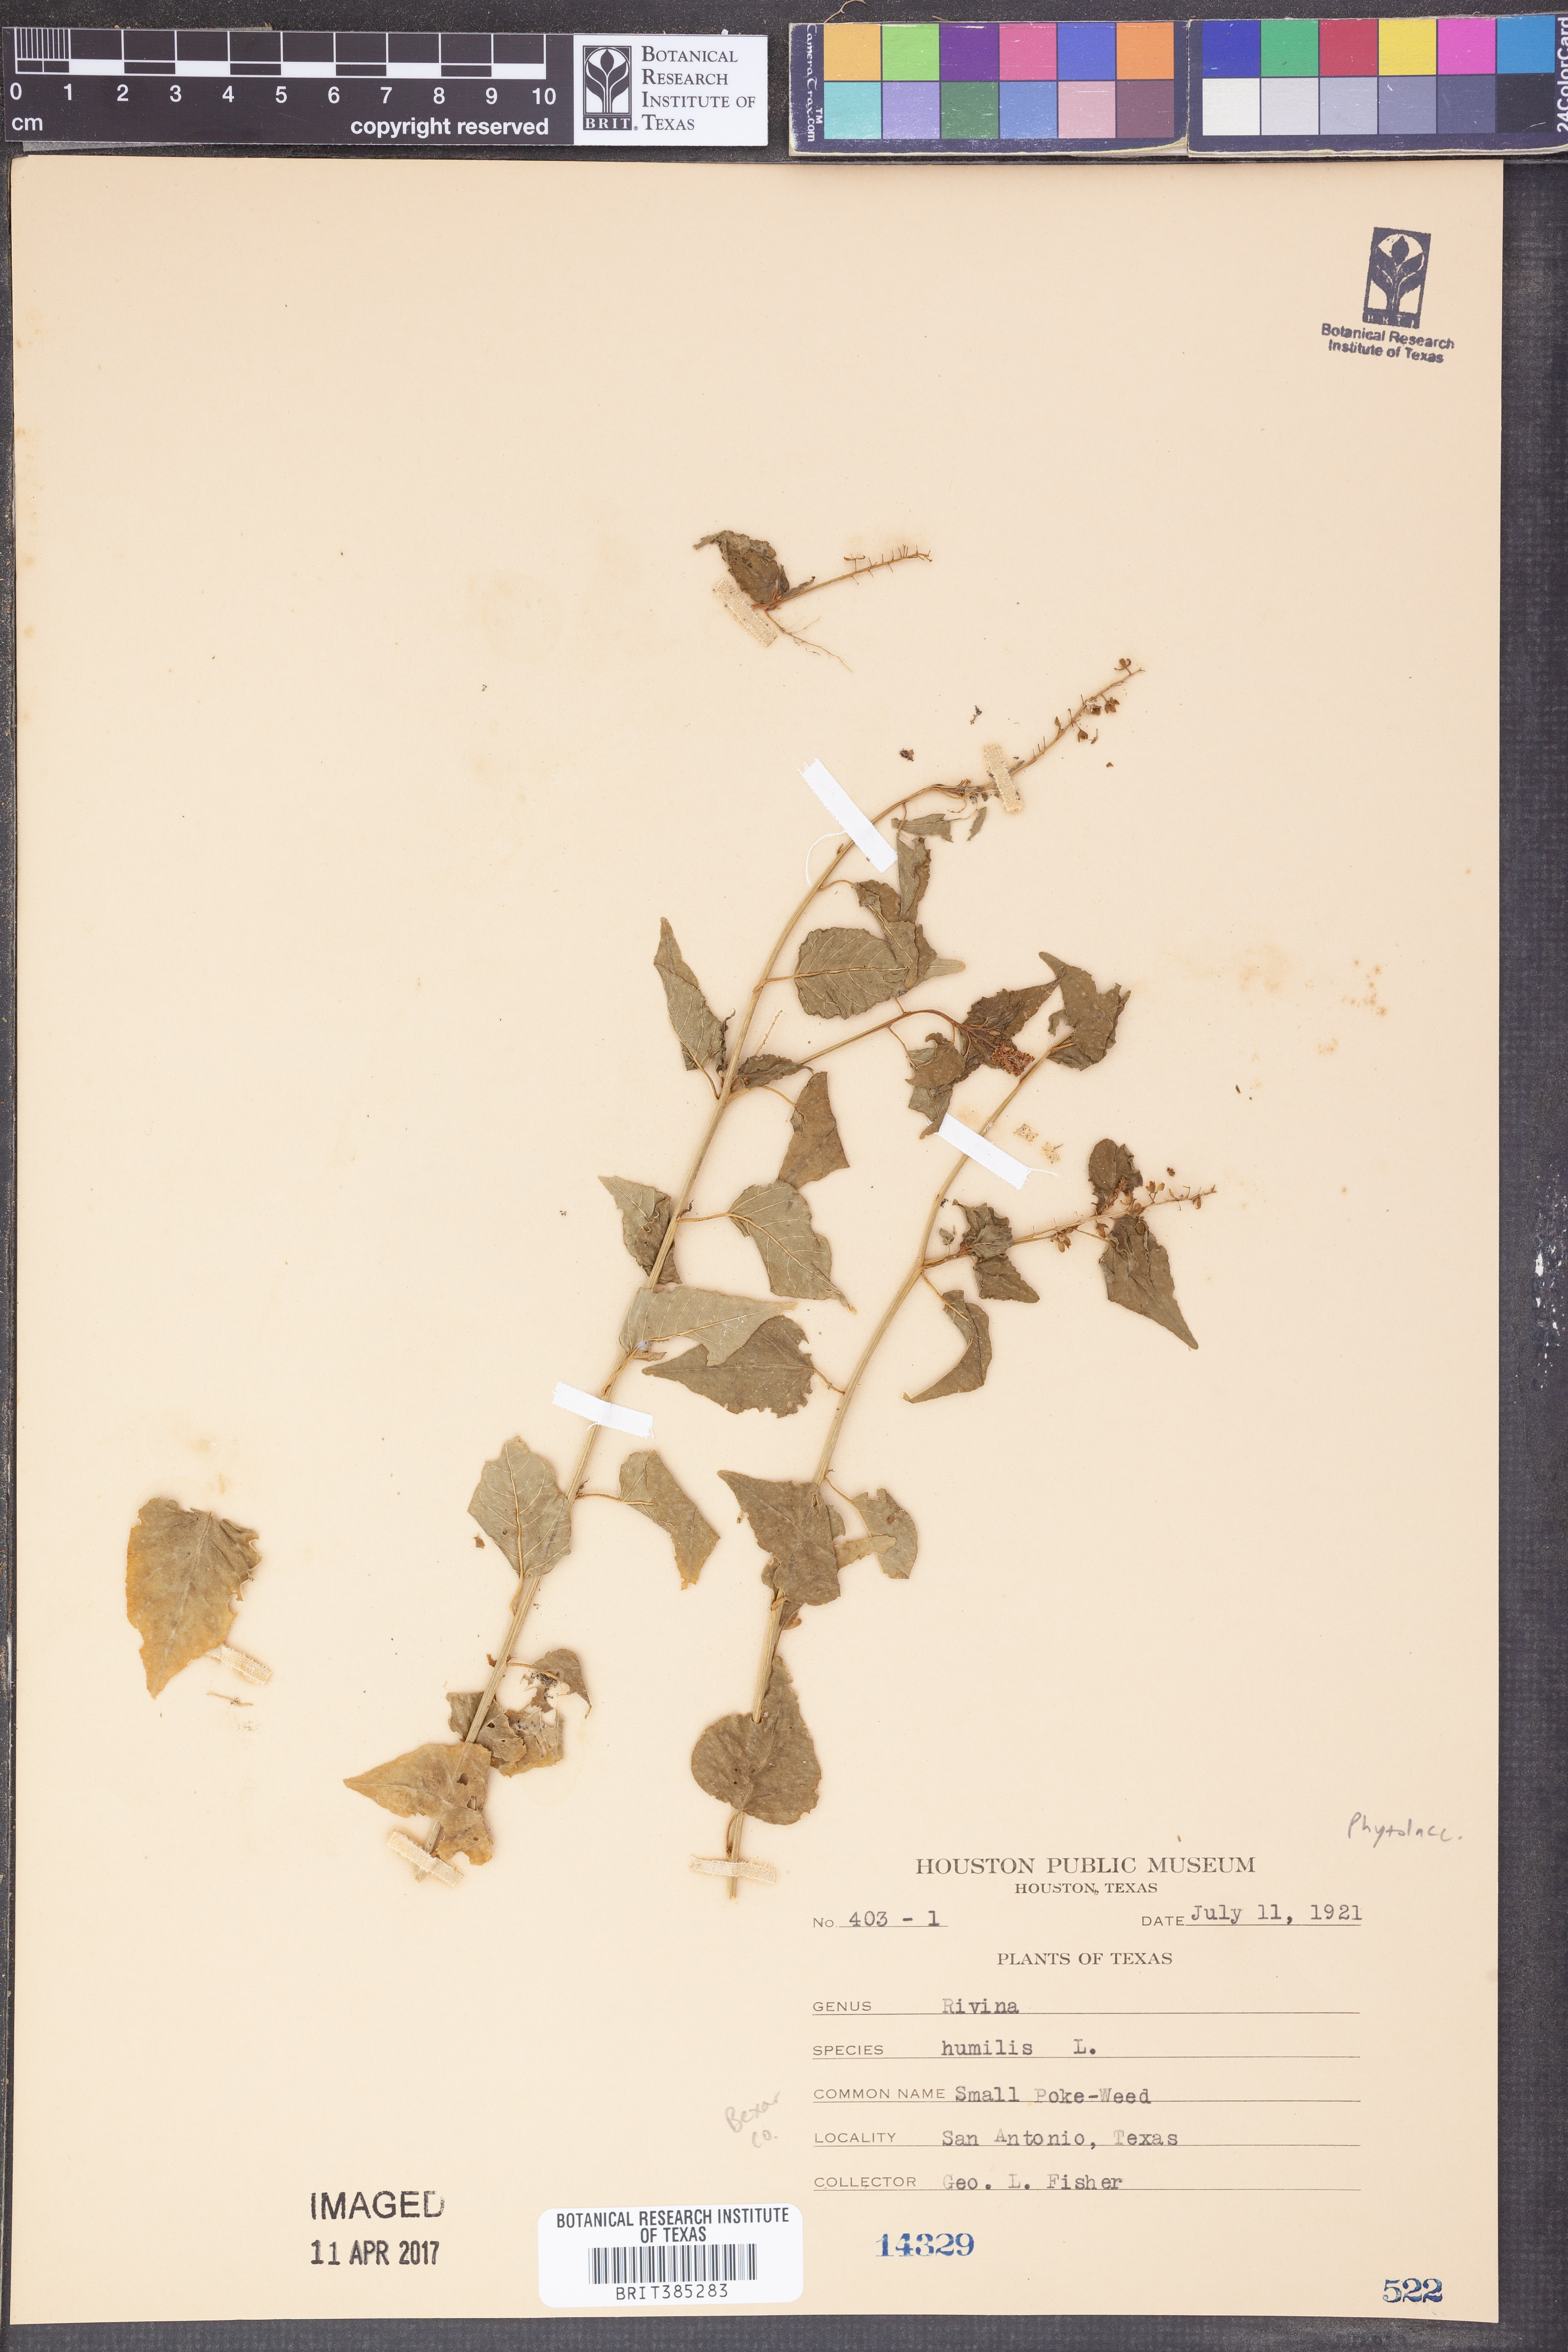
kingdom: Plantae
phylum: Tracheophyta
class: Magnoliopsida
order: Caryophyllales
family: Phytolaccaceae
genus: Rivina
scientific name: Rivina humilis
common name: Rougeplant
